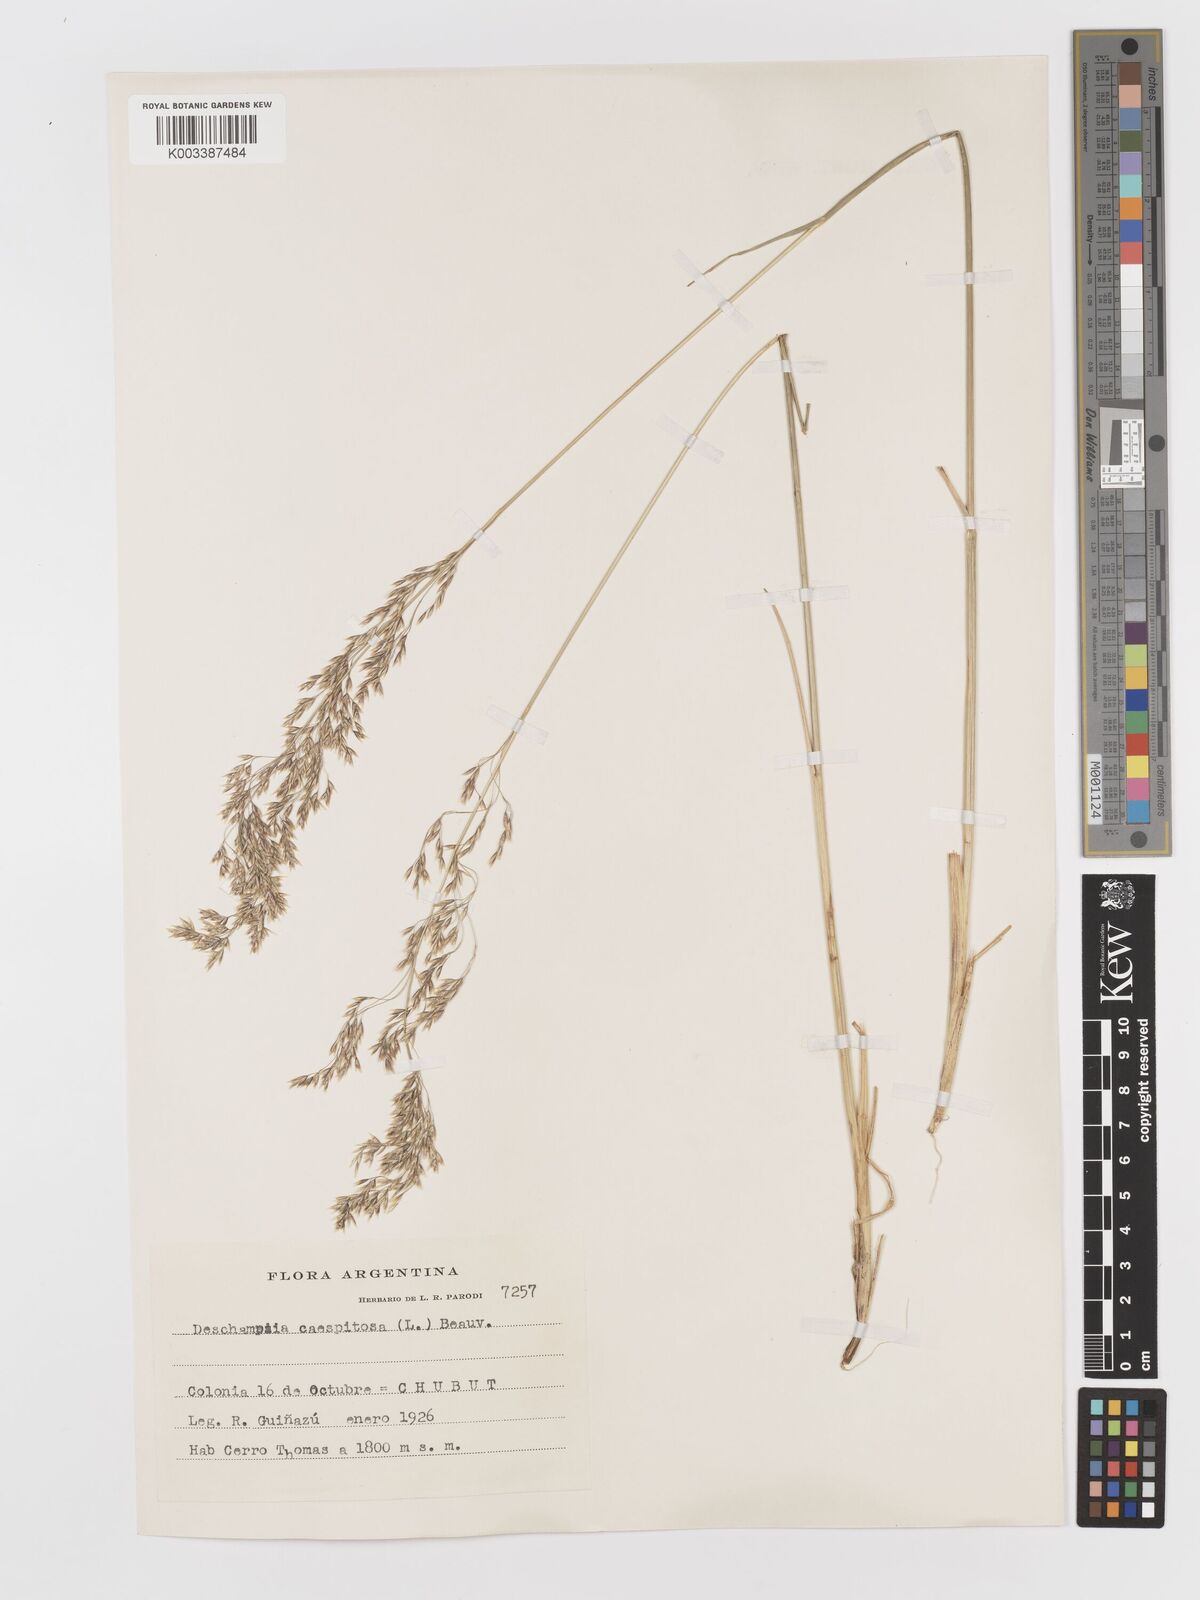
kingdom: Plantae
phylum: Tracheophyta
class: Liliopsida
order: Poales
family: Poaceae
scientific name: Poaceae
